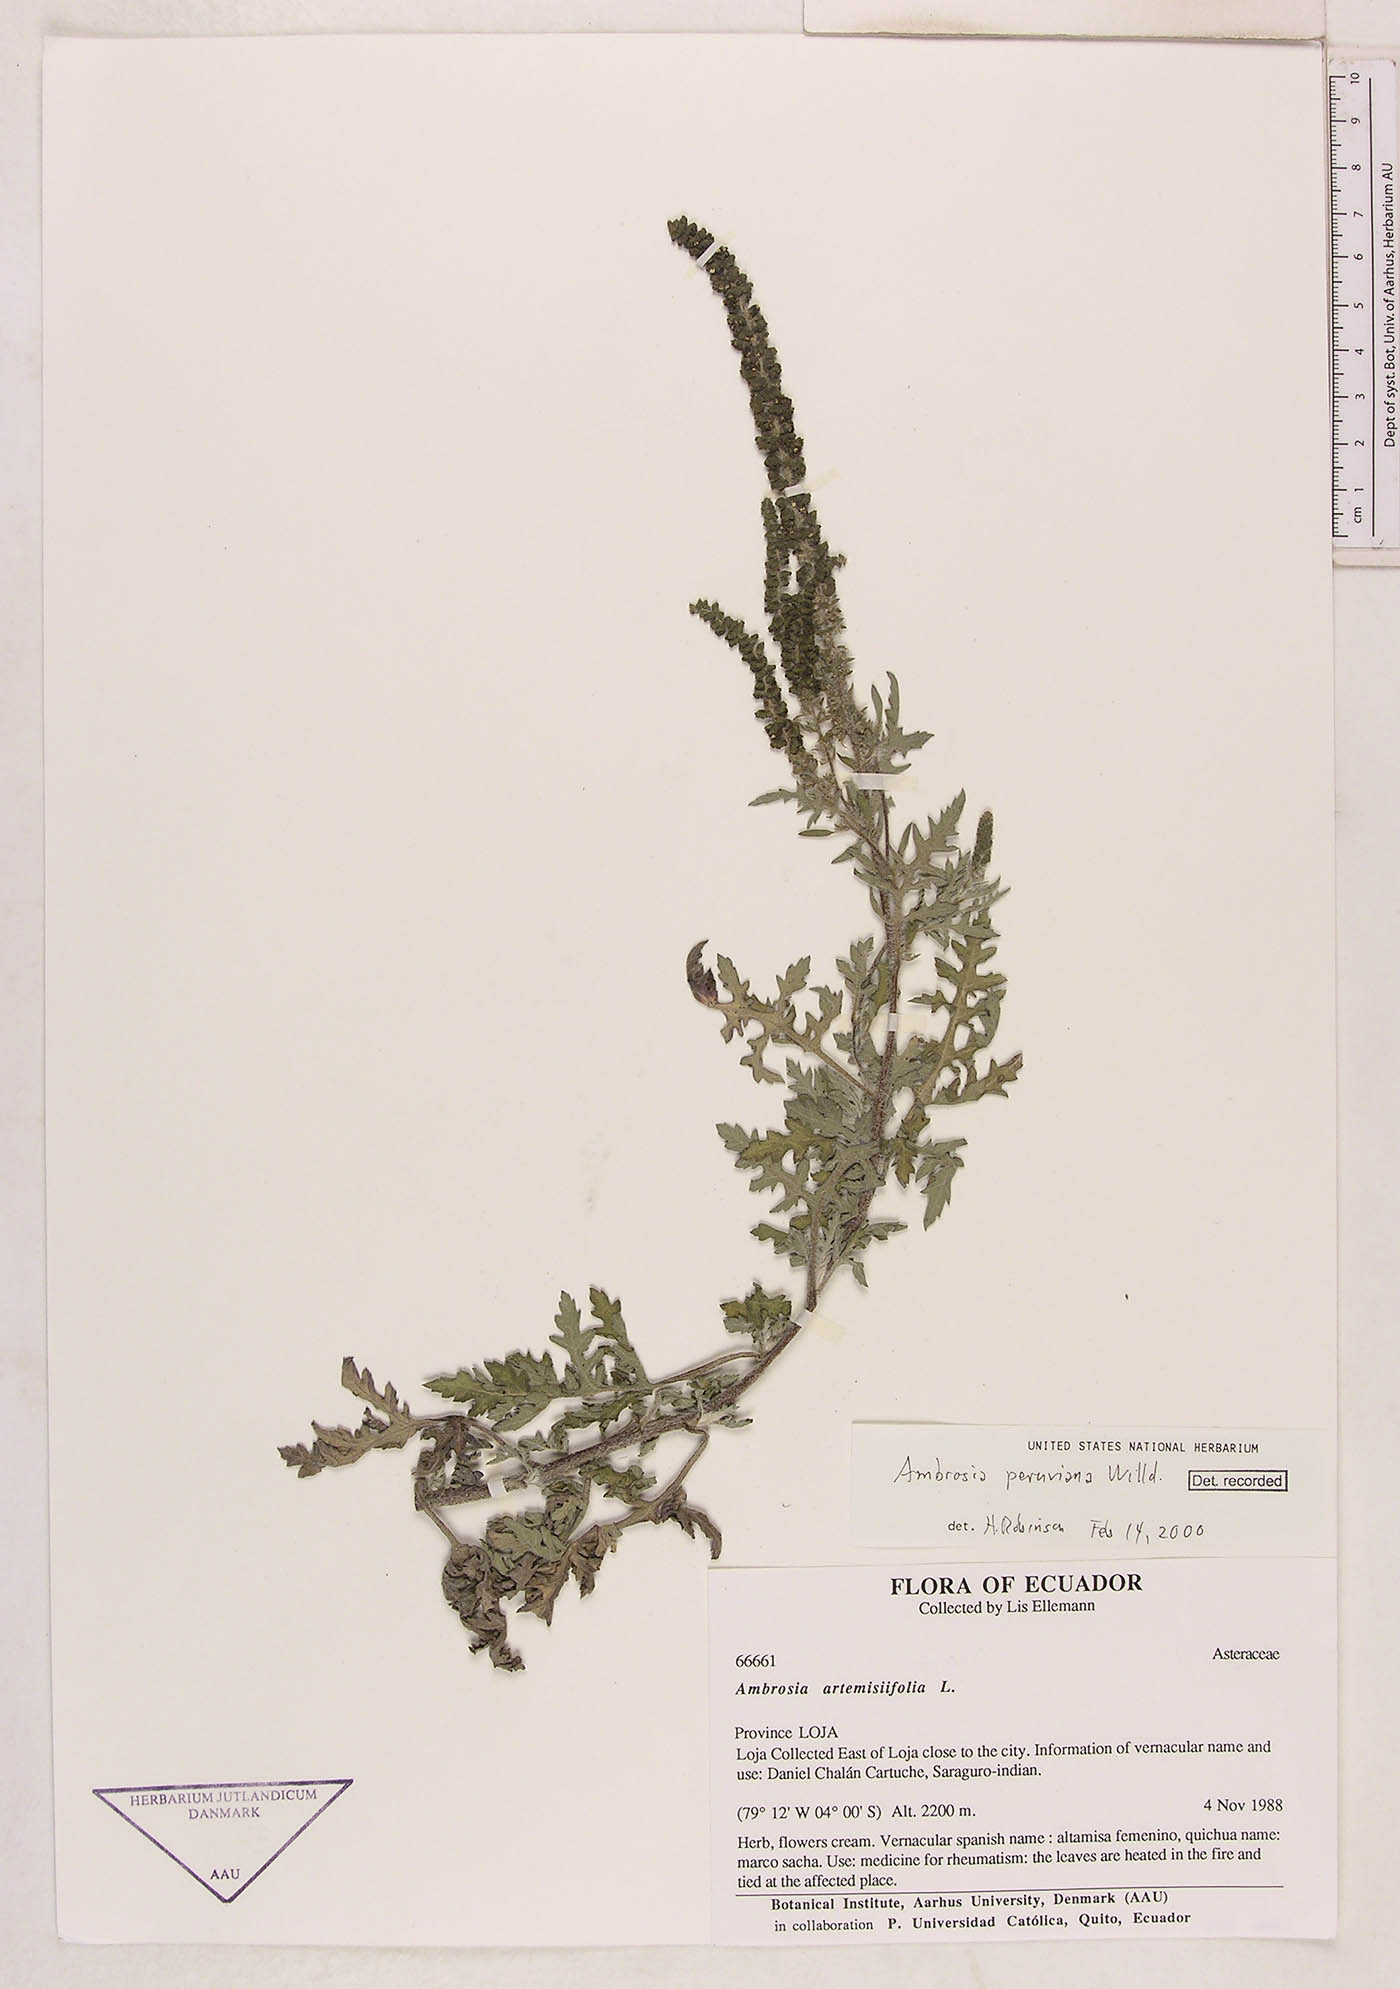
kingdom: Plantae
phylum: Tracheophyta
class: Magnoliopsida
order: Asterales
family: Asteraceae
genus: Ambrosia
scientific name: Ambrosia cumanensis
